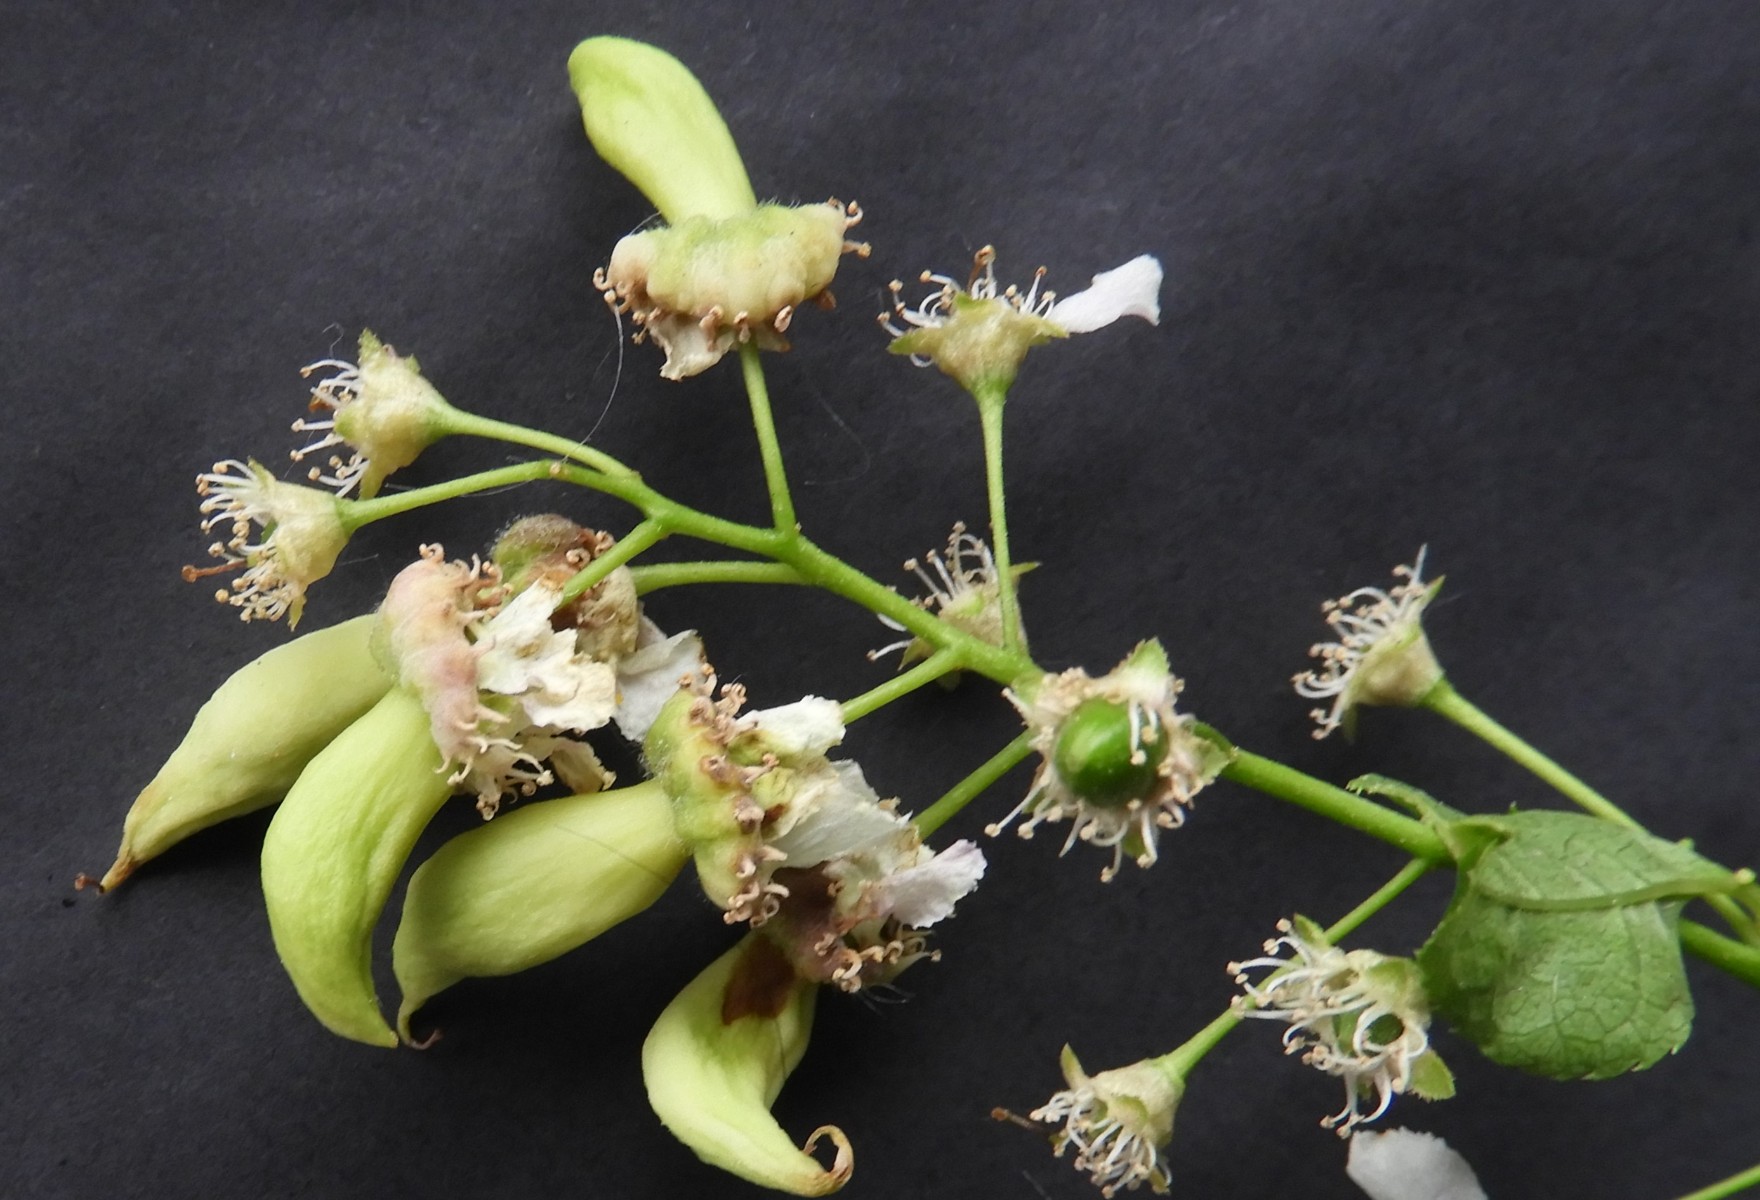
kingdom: Fungi
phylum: Ascomycota
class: Taphrinomycetes
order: Taphrinales
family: Taphrinaceae
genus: Taphrina
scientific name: Taphrina padi
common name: Bird cherry pocket
